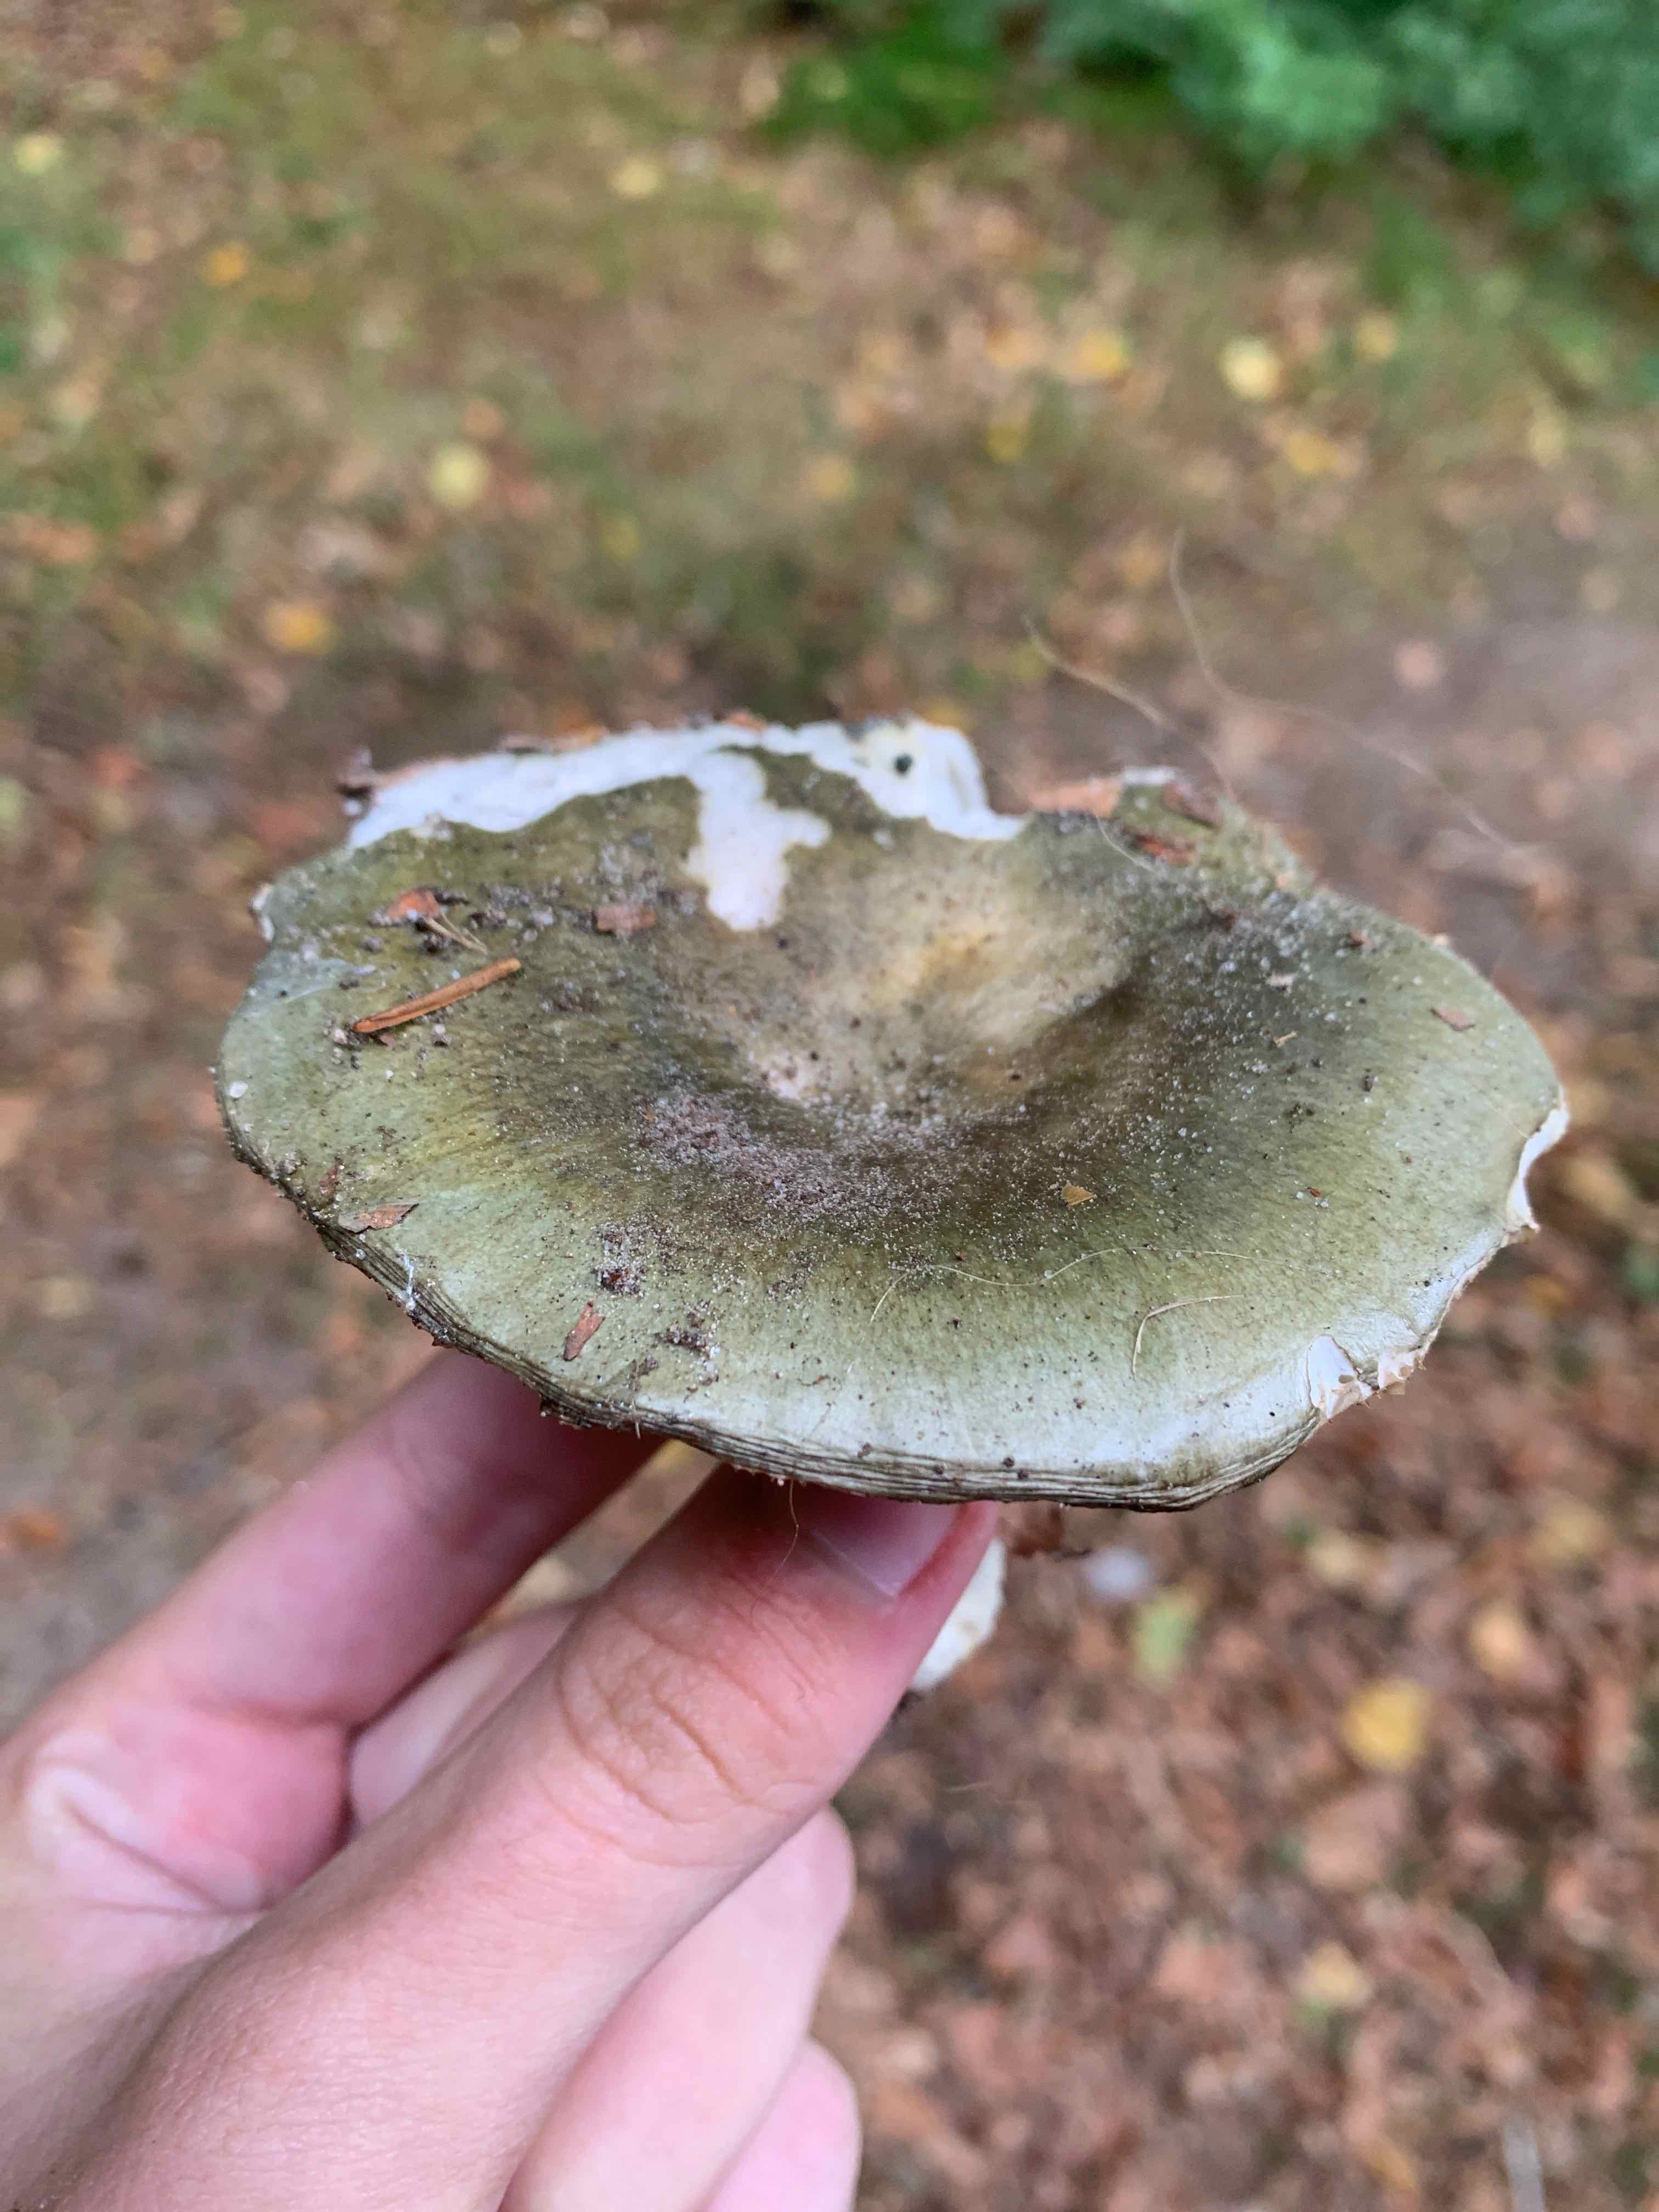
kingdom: Fungi
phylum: Basidiomycota
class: Agaricomycetes
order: Russulales
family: Russulaceae
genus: Russula
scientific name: Russula heterophylla
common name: gaffelbladet skørhat
